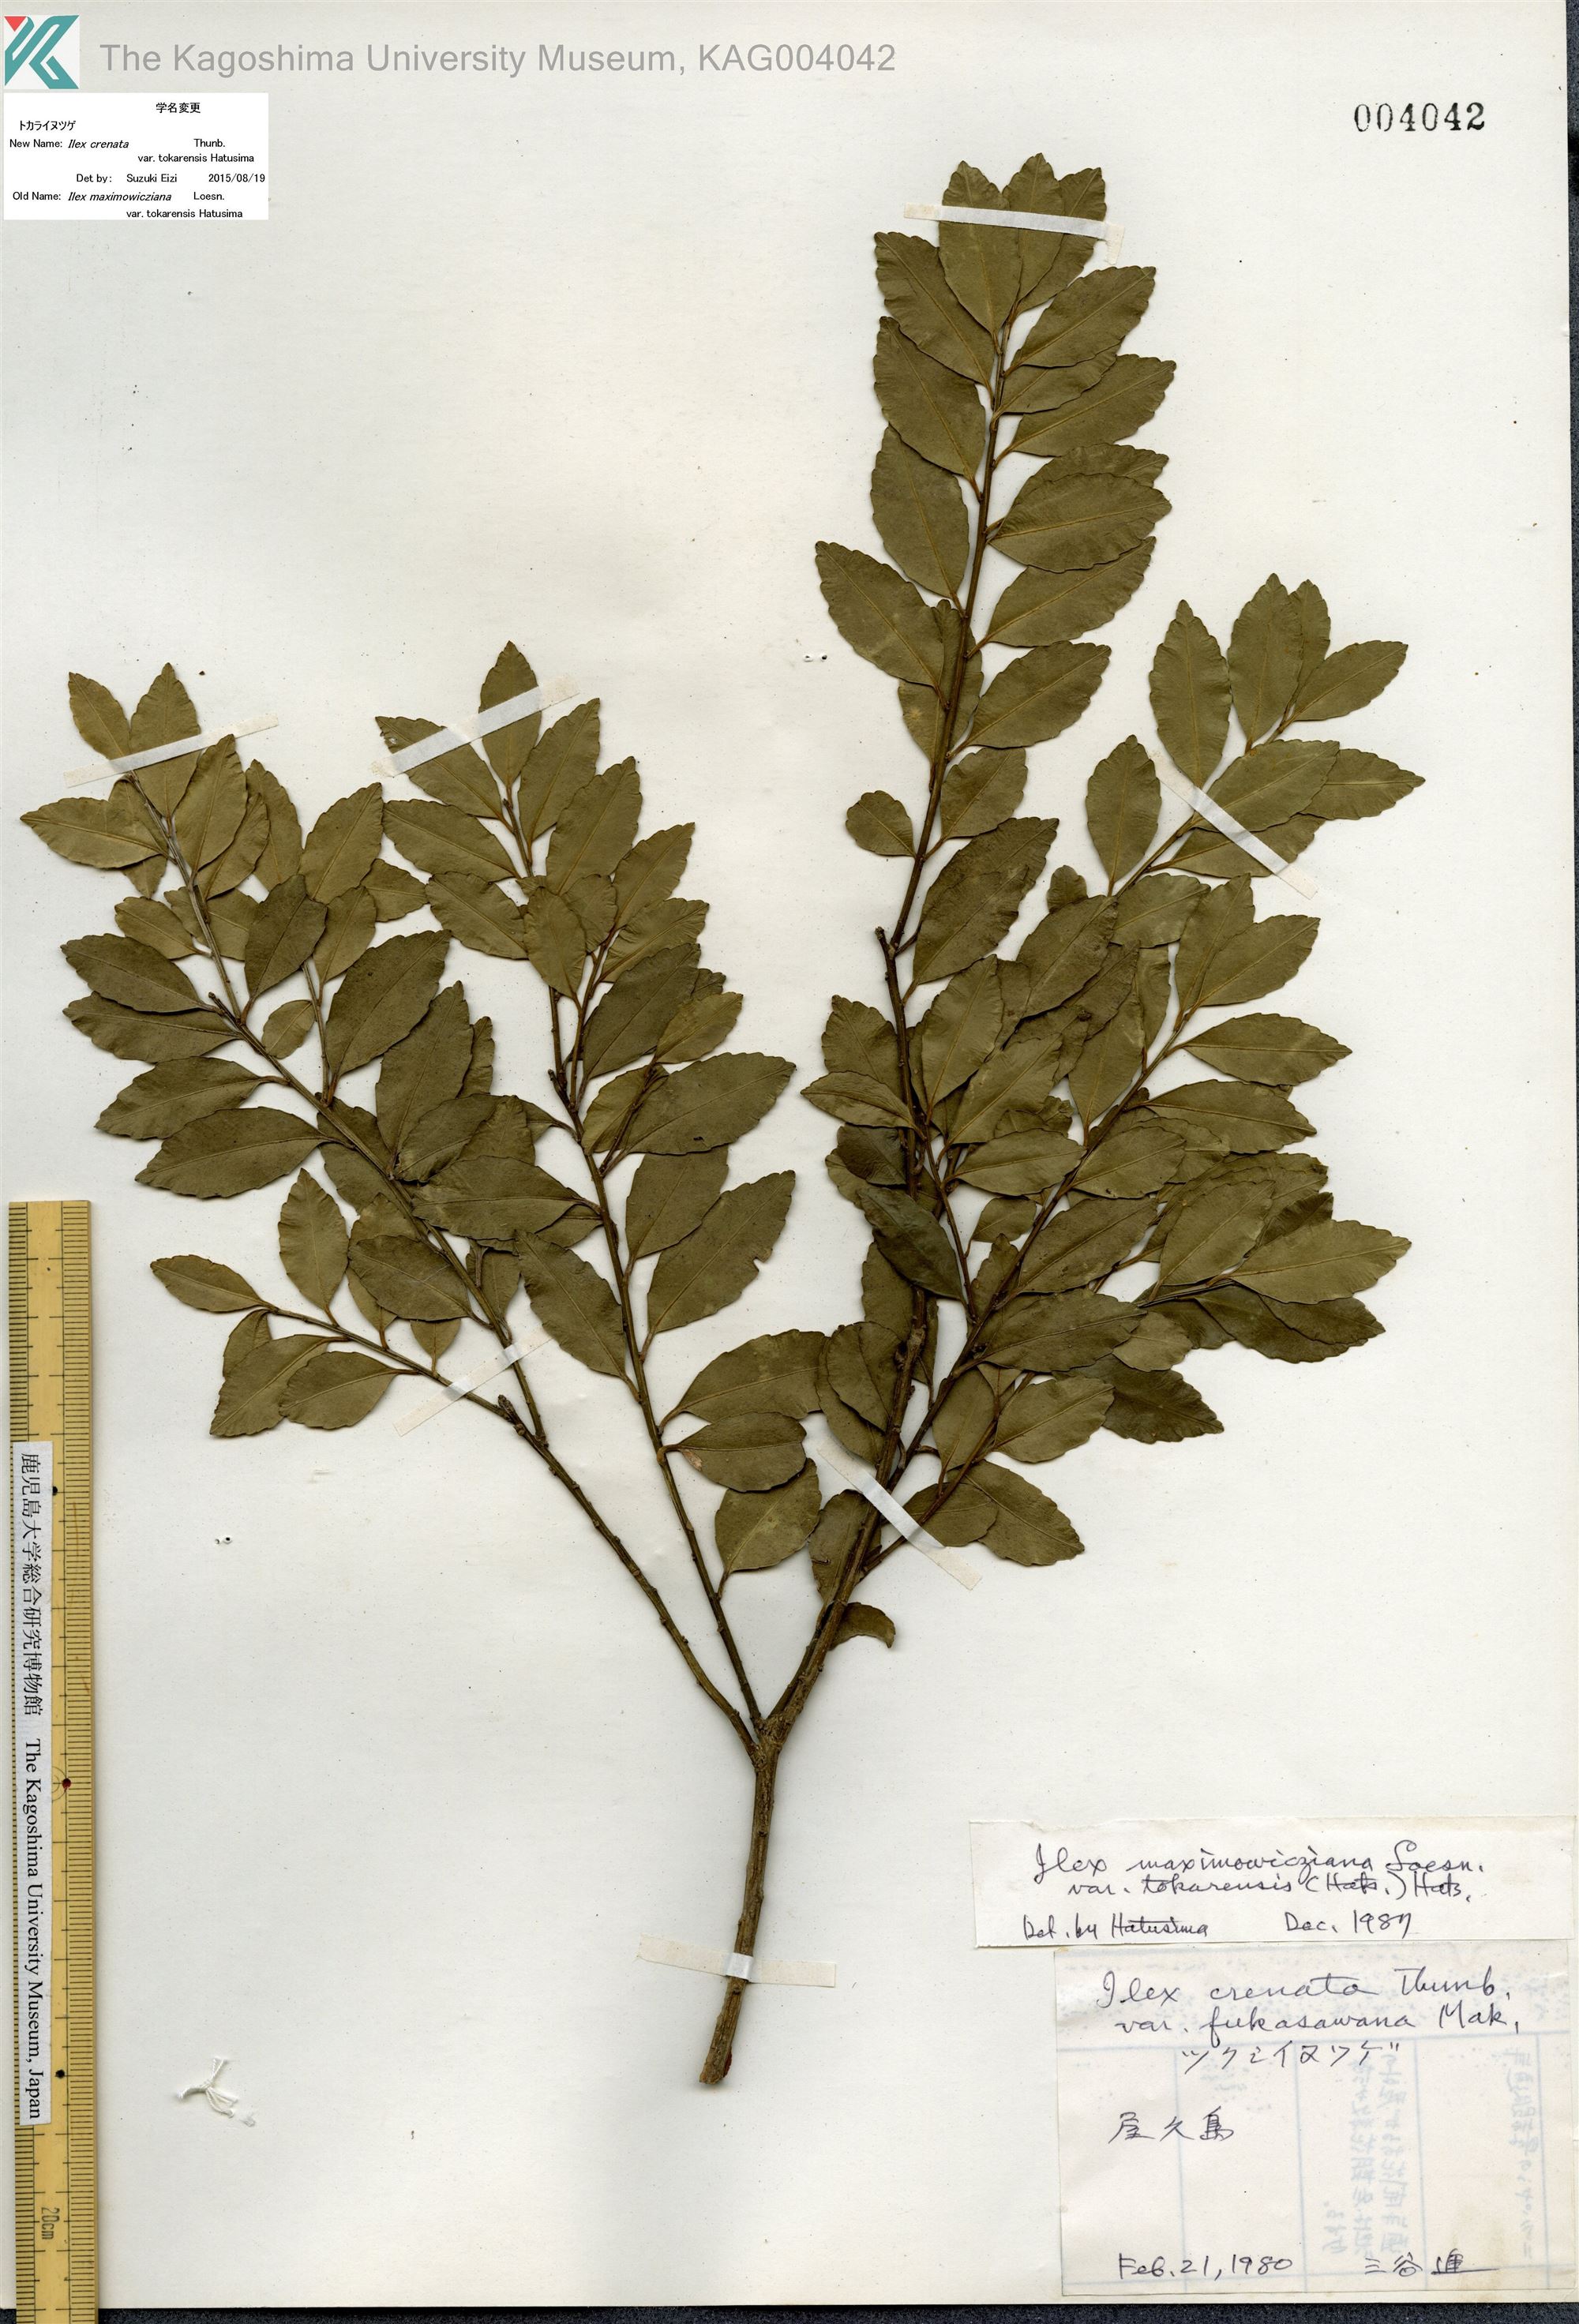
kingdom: Plantae
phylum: Tracheophyta
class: Magnoliopsida
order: Aquifoliales
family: Aquifoliaceae
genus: Ilex
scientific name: Ilex crenata
